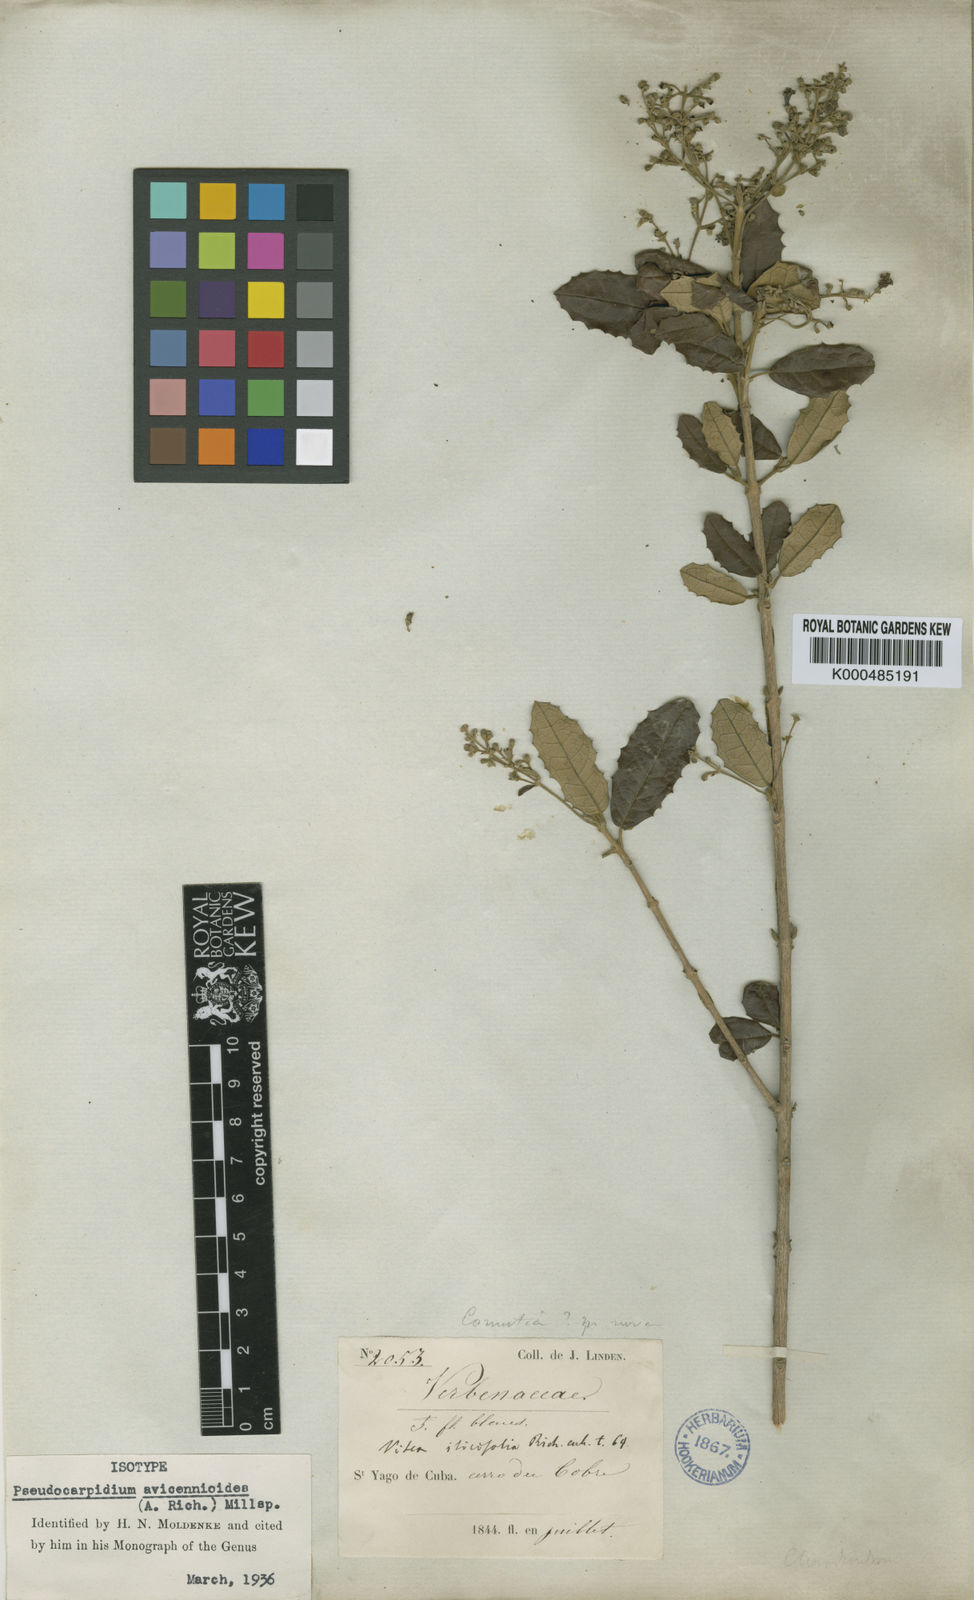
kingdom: Plantae
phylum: Tracheophyta
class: Magnoliopsida
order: Lamiales
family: Lamiaceae
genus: Pseudocarpidium
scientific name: Pseudocarpidium avicennioides
